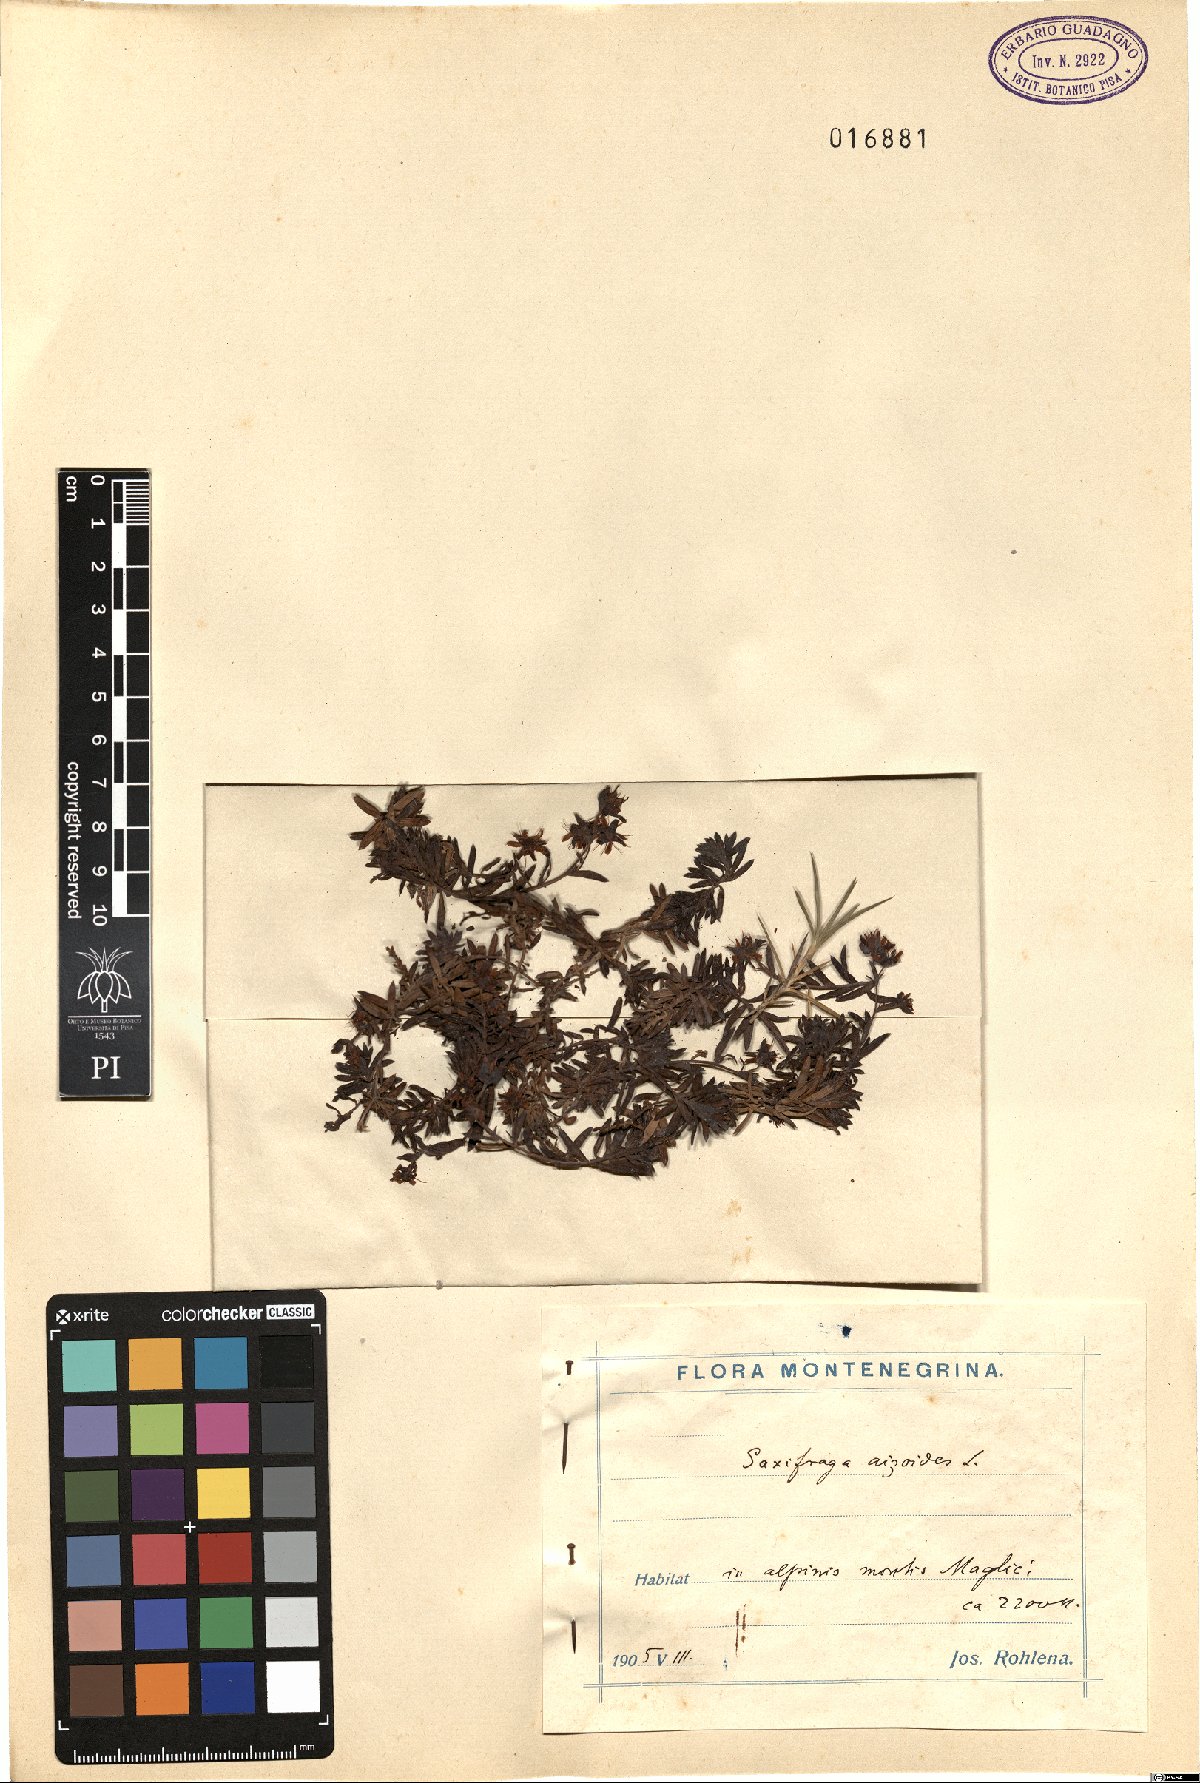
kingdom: Plantae
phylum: Tracheophyta
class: Magnoliopsida
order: Saxifragales
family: Saxifragaceae
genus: Saxifraga
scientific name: Saxifraga aizoides
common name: Yellow mountain saxifrage
